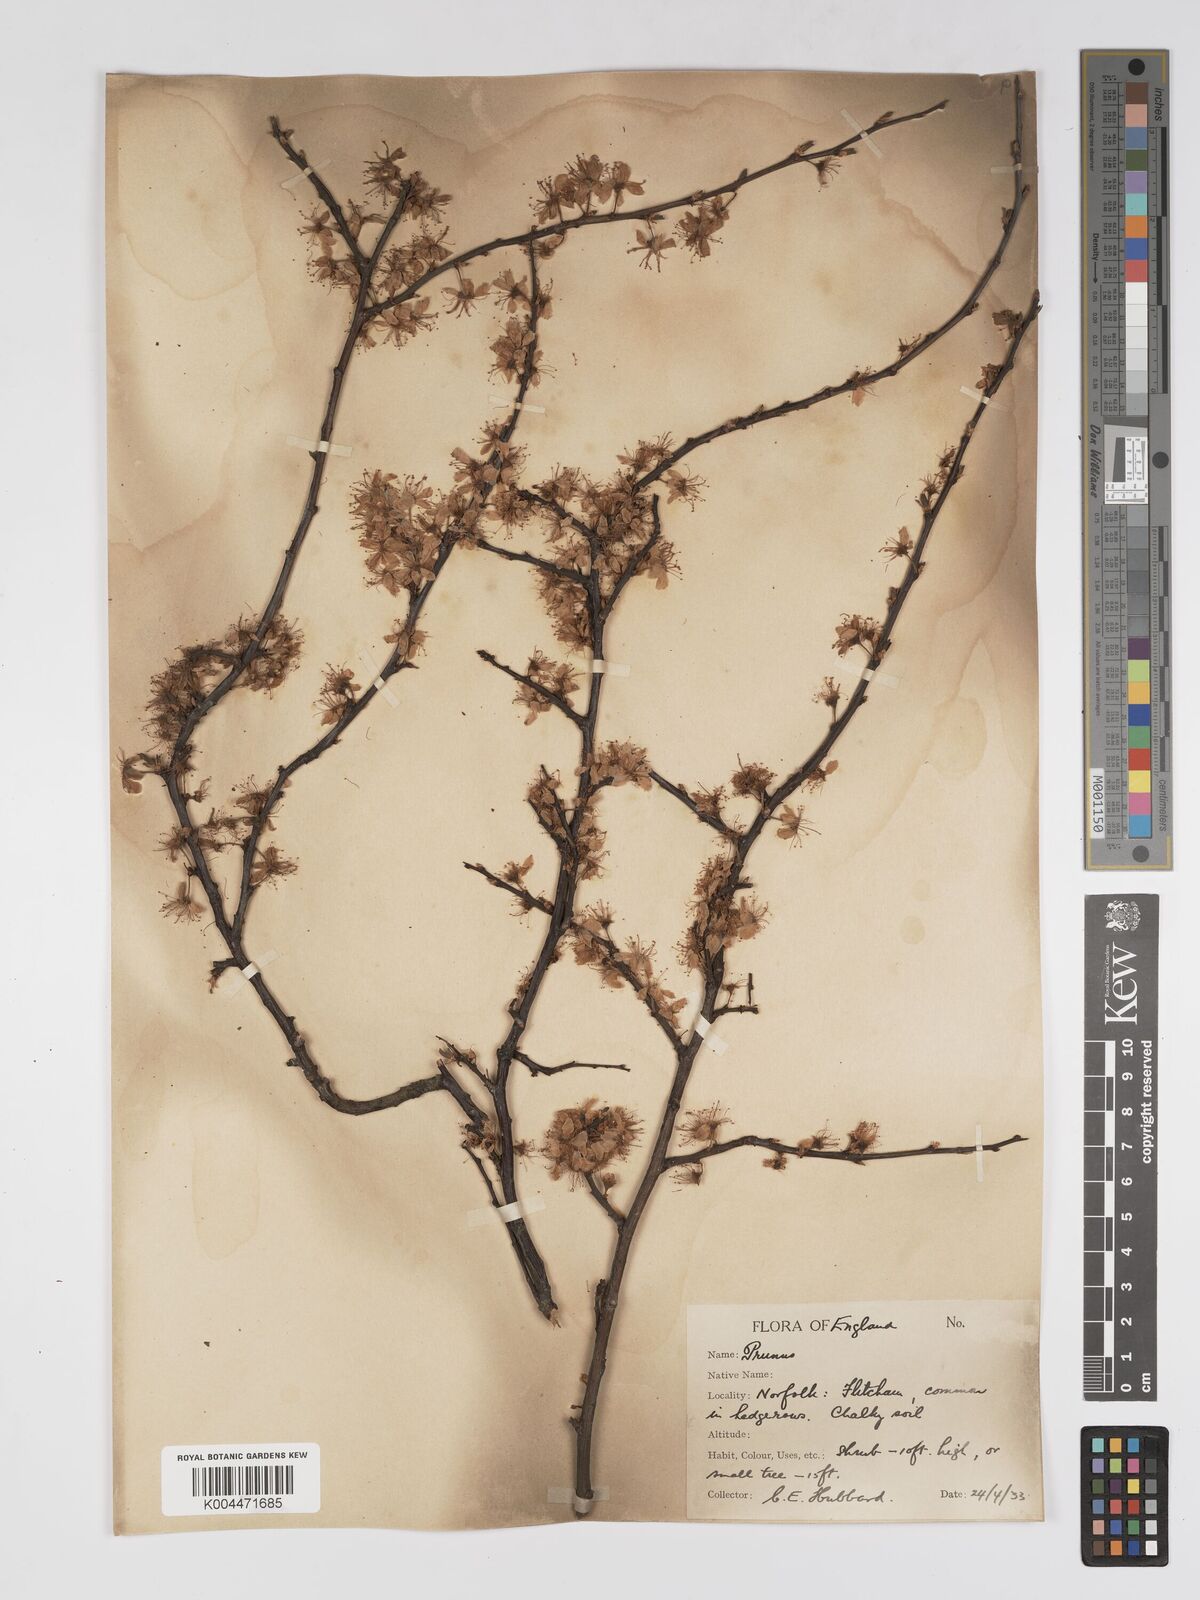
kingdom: Plantae
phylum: Tracheophyta
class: Magnoliopsida
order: Rosales
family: Rosaceae
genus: Prunus
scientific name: Prunus
